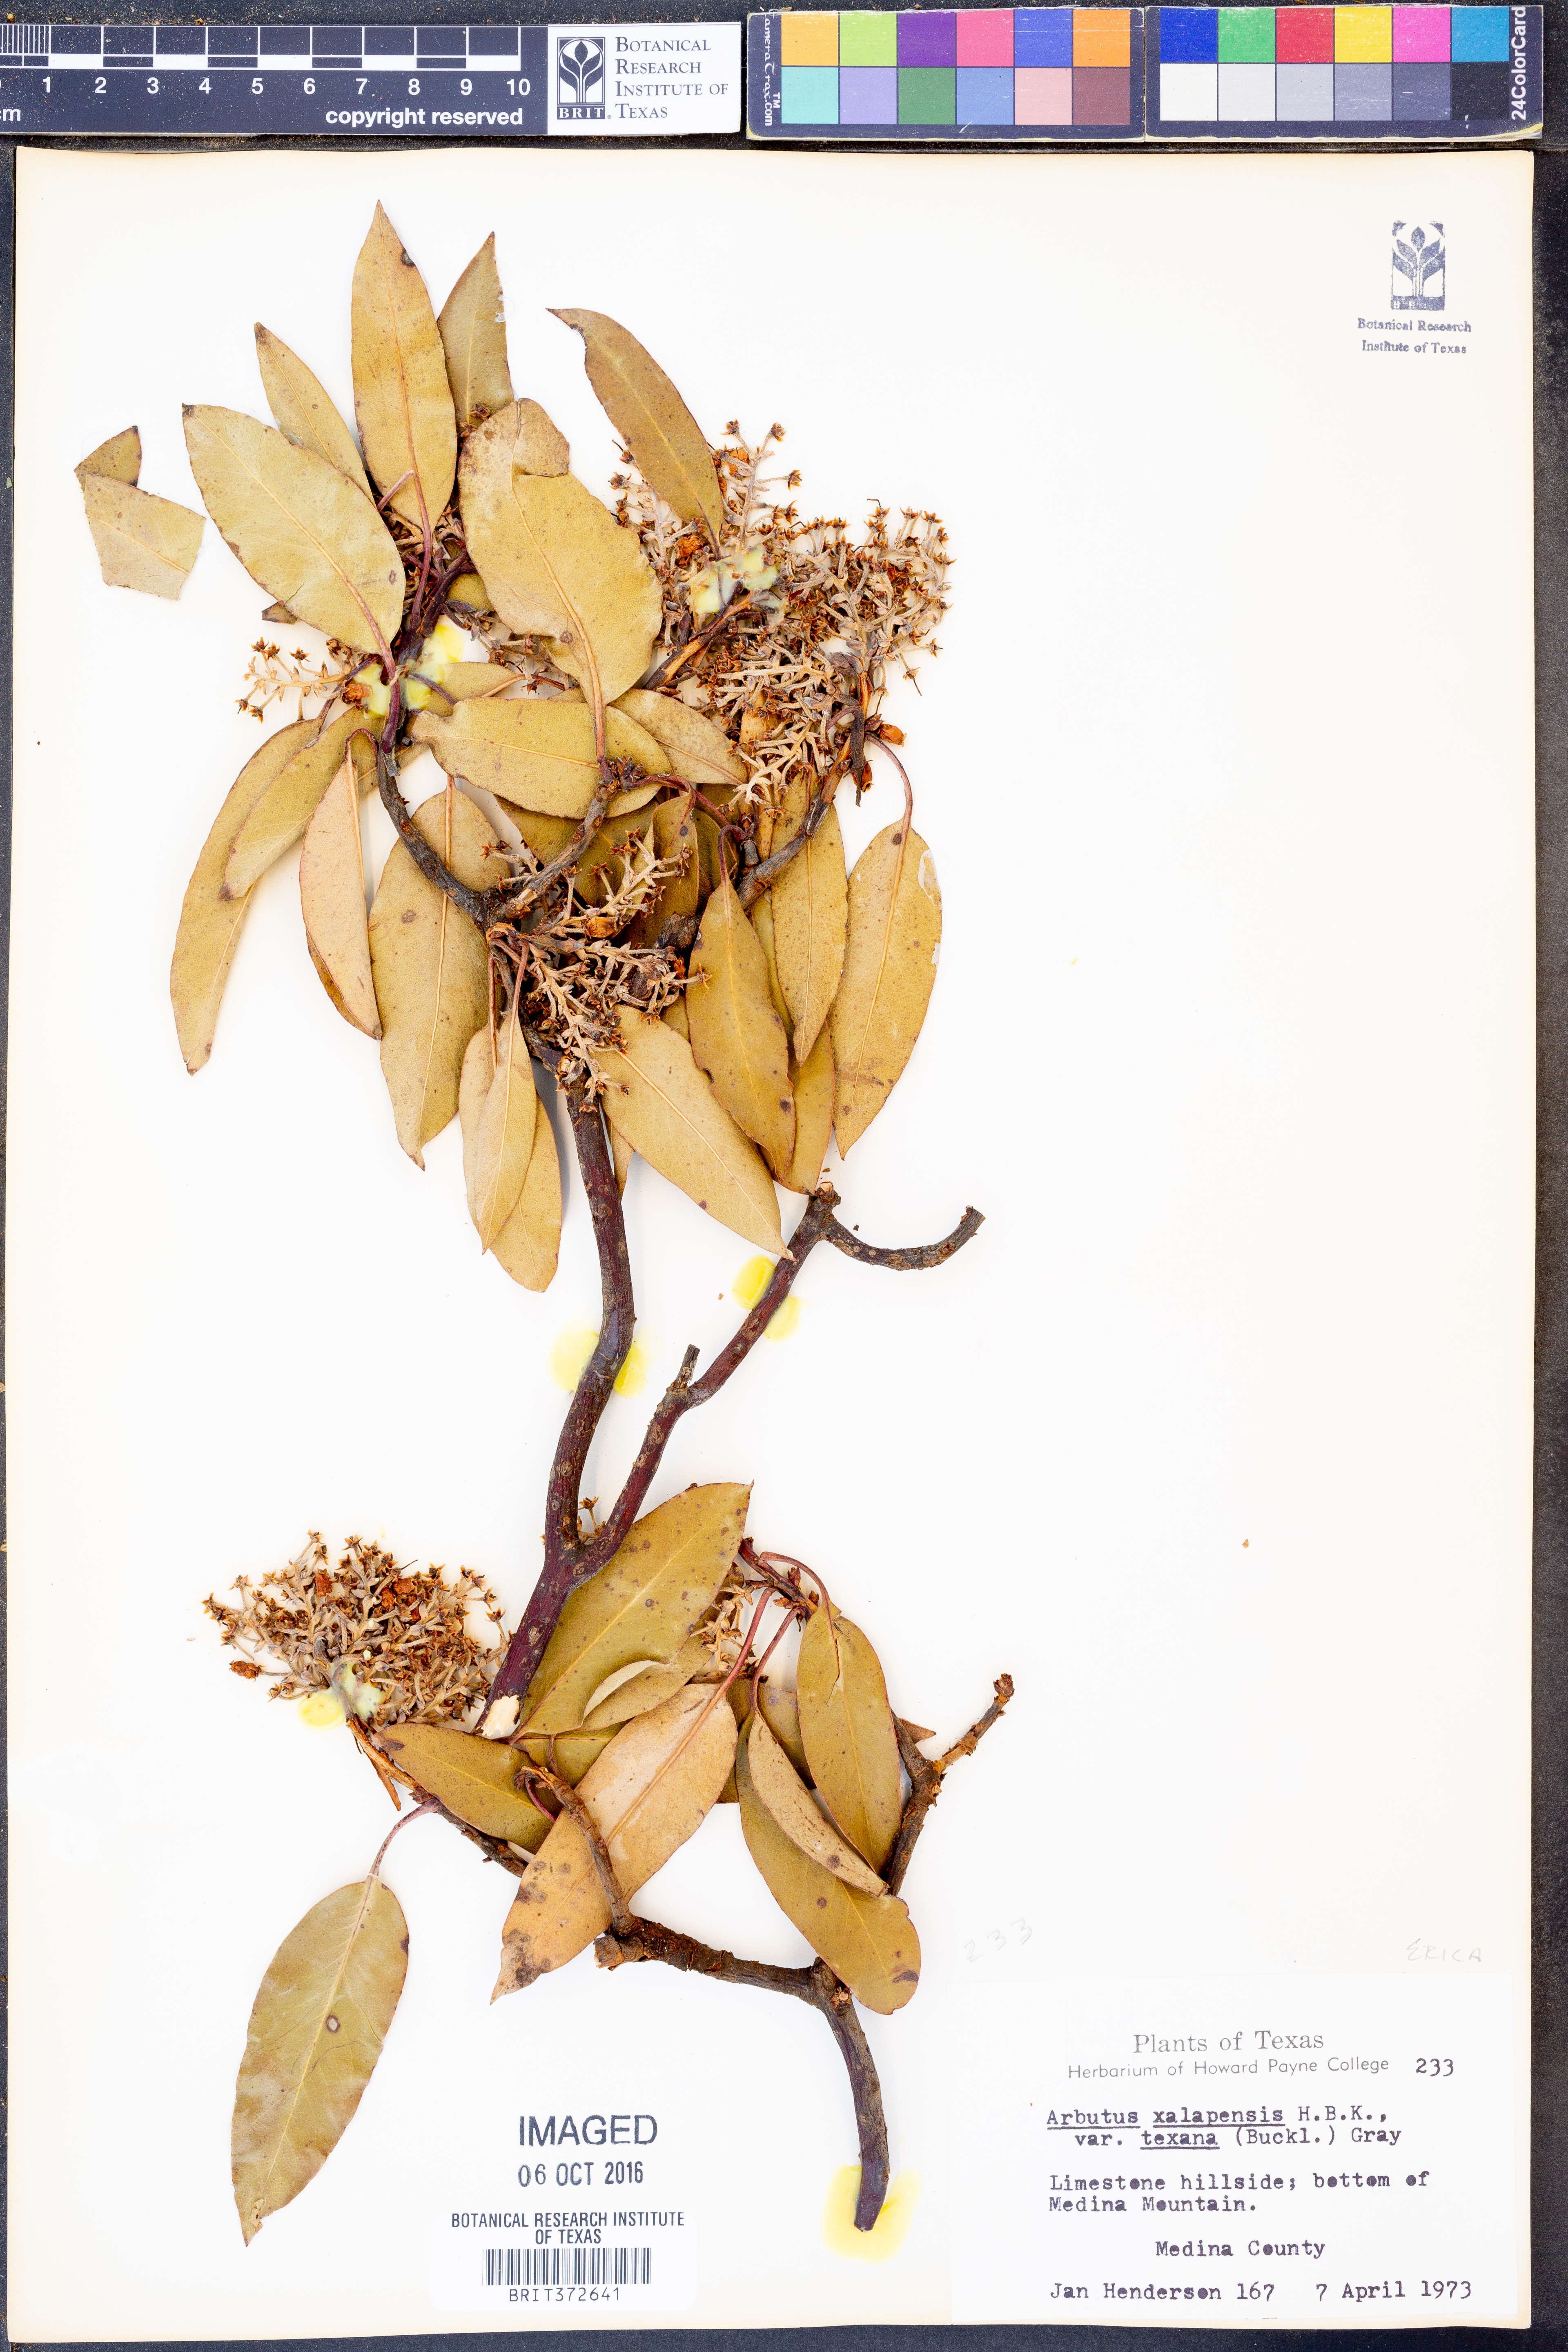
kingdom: Plantae
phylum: Tracheophyta
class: Magnoliopsida
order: Ericales
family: Ericaceae
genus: Arbutus
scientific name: Arbutus xalapensis
